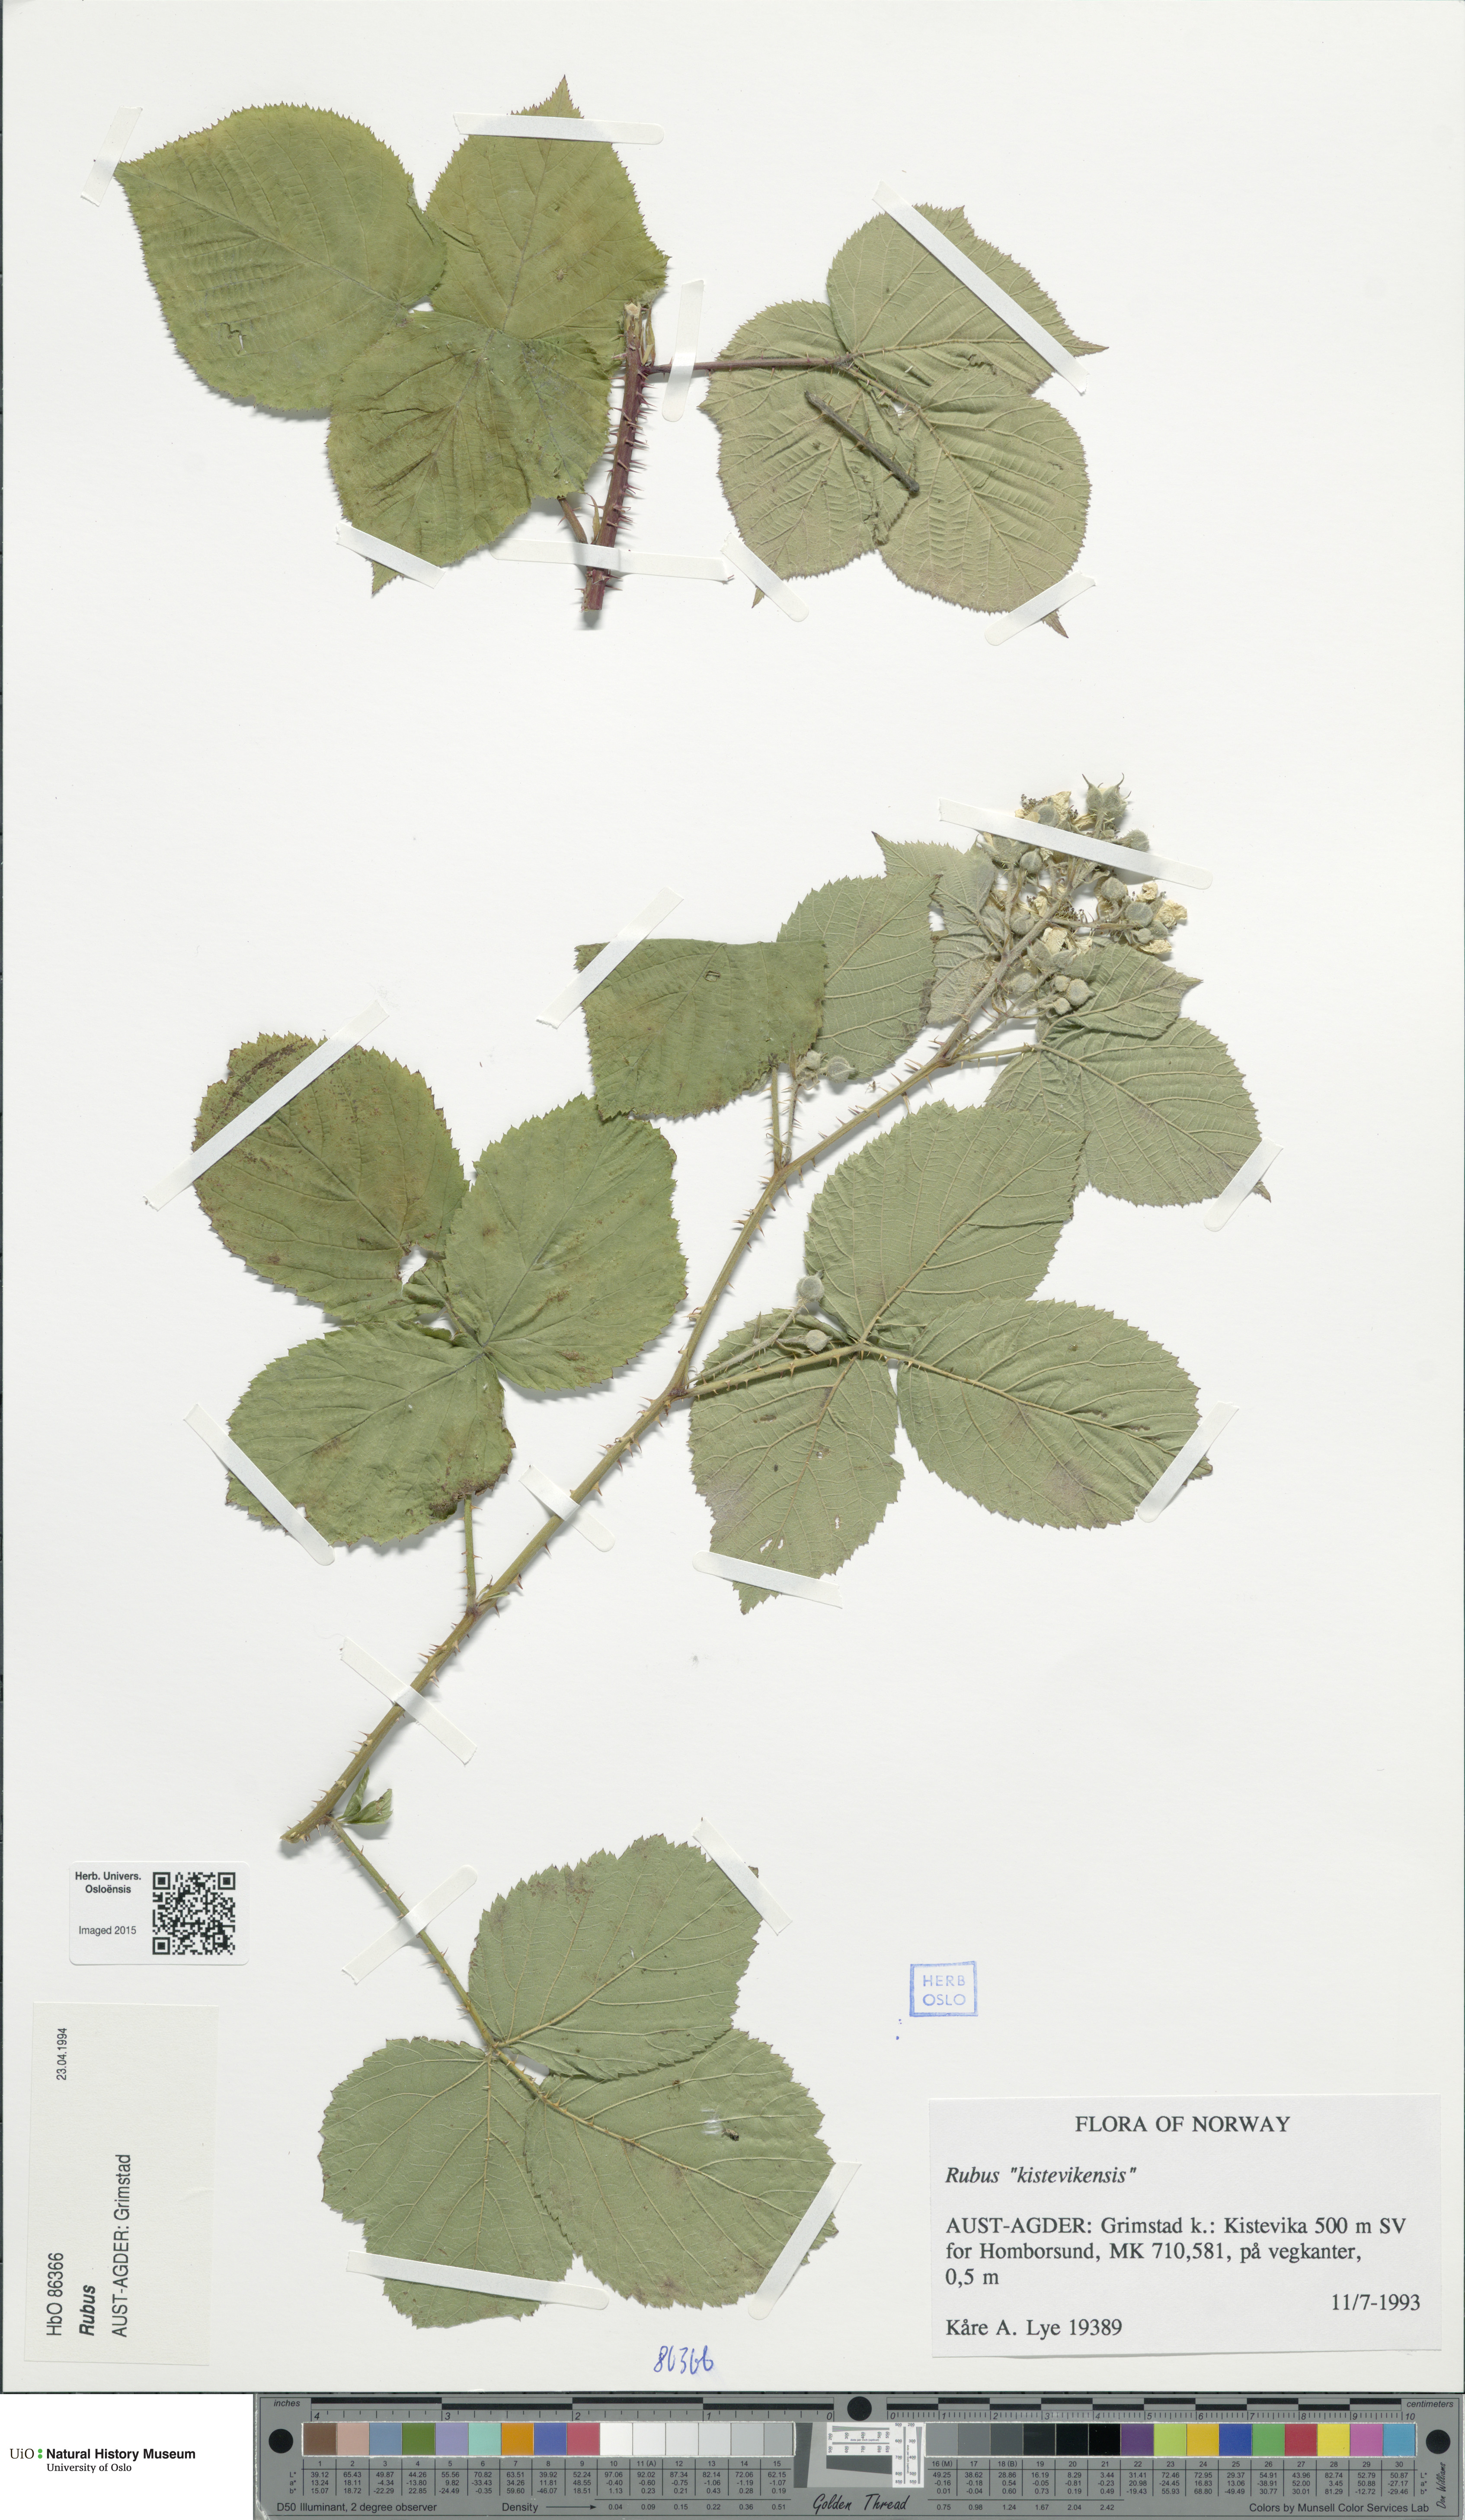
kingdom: Plantae
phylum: Tracheophyta
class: Magnoliopsida
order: Rosales
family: Rosaceae
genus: Rubus
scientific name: Rubus
